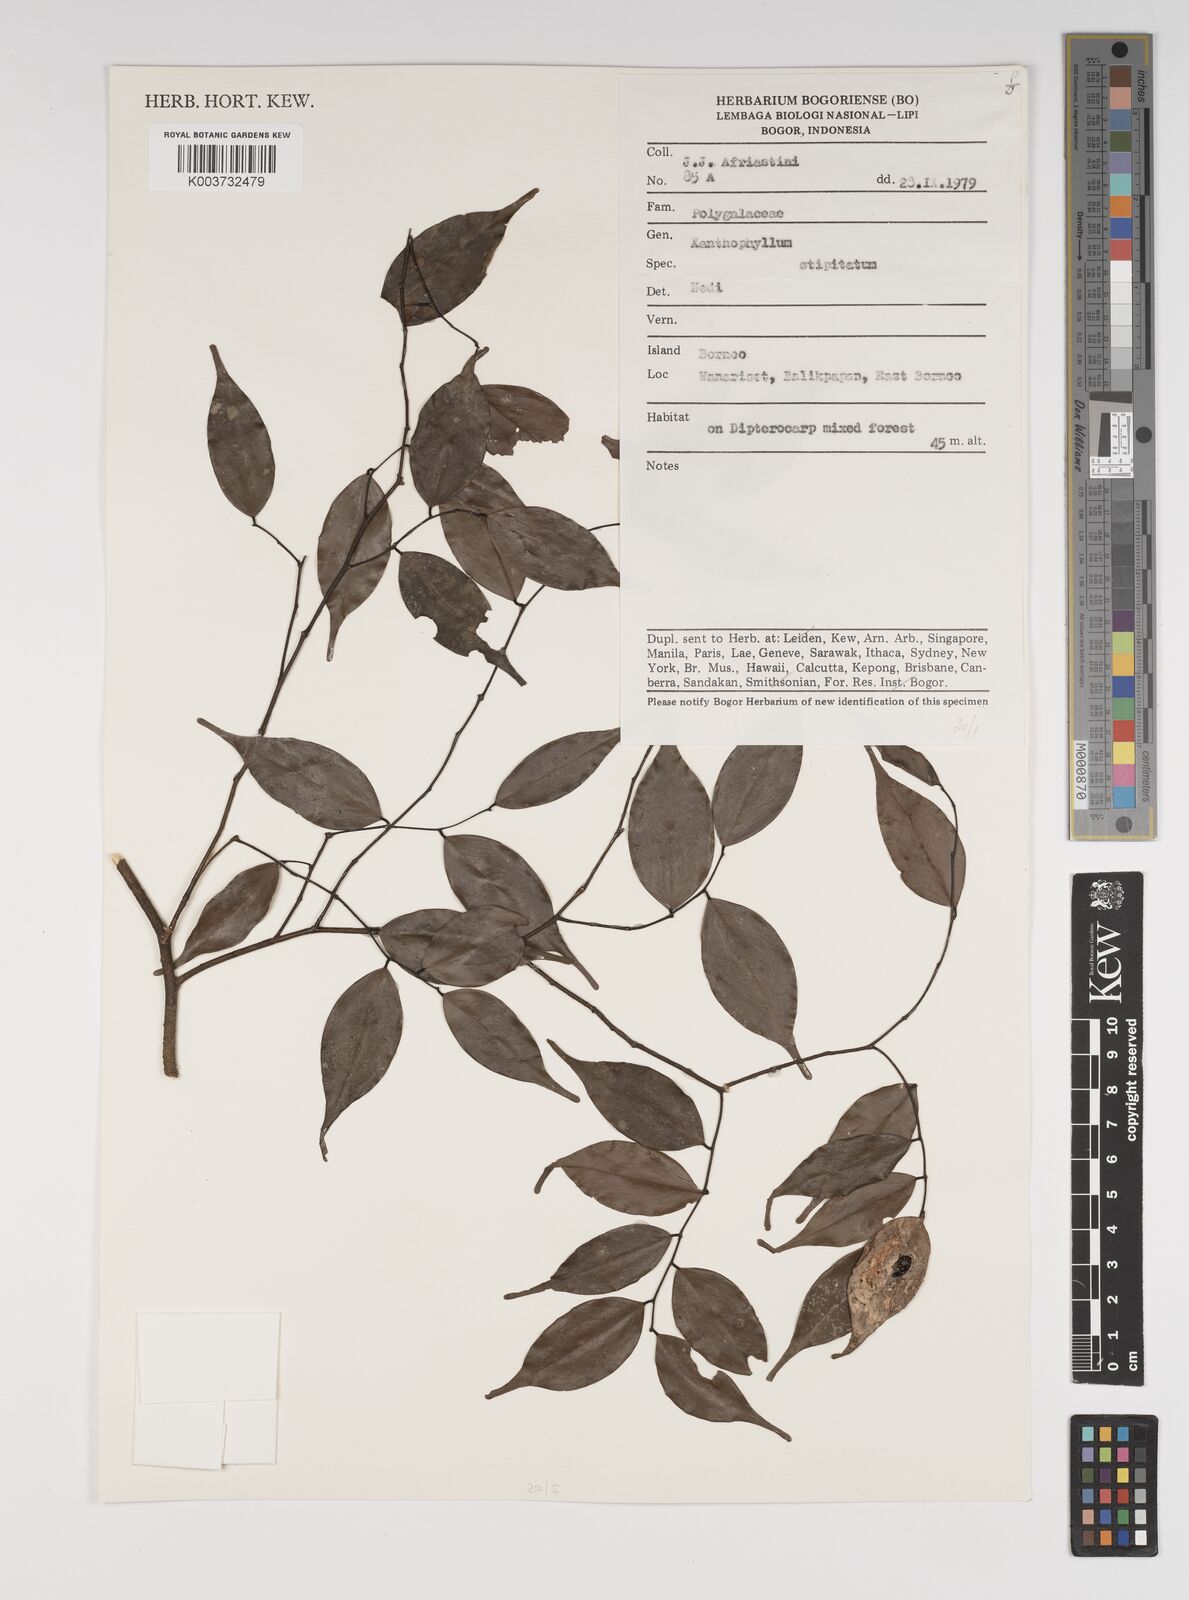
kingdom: Plantae
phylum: Tracheophyta
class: Magnoliopsida
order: Fabales
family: Polygalaceae
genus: Xanthophyllum
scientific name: Xanthophyllum stipitatum
